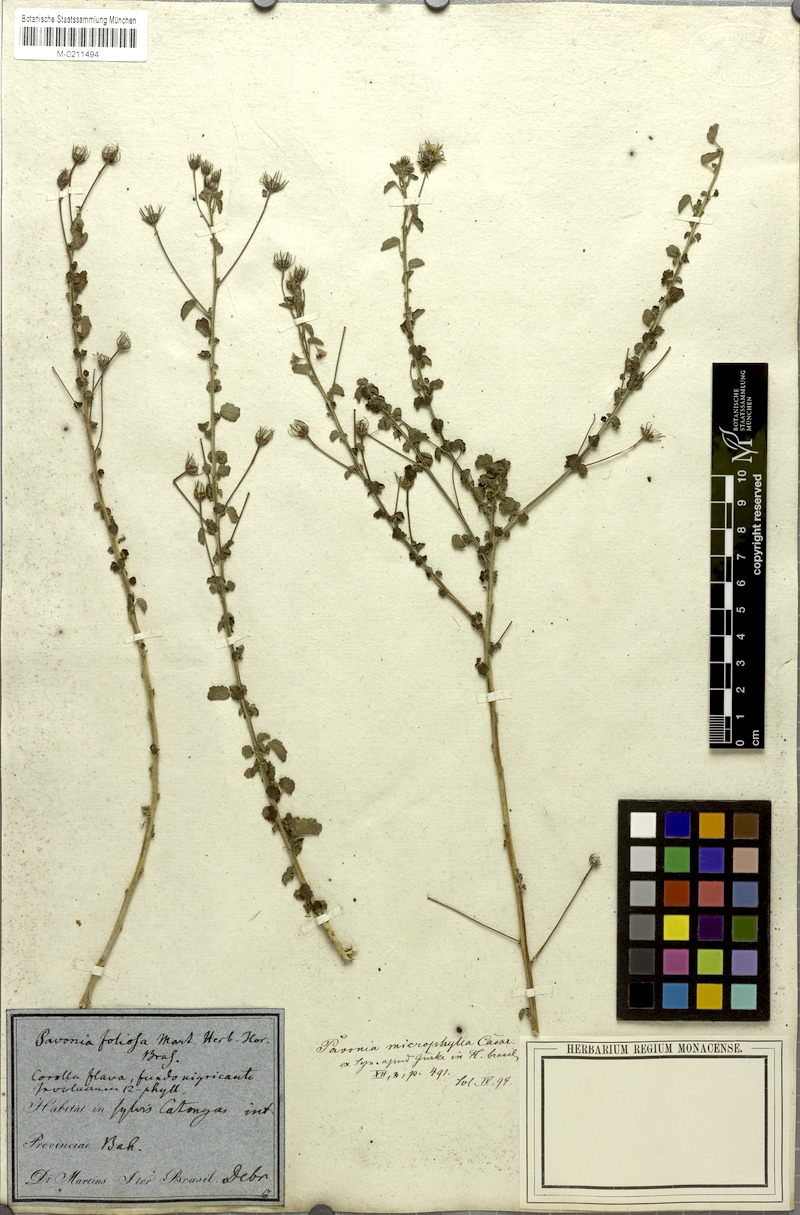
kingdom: Plantae
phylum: Tracheophyta
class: Magnoliopsida
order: Malvales
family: Malvaceae
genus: Pavonia
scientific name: Pavonia martii
